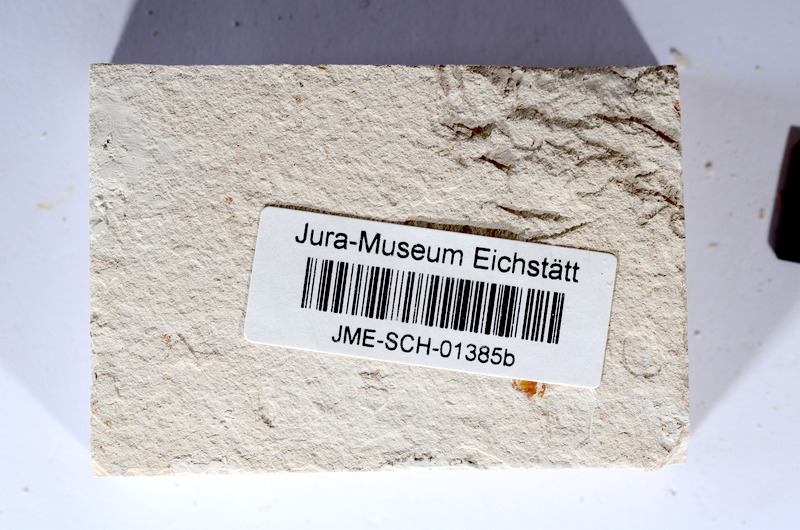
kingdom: Animalia
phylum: Chordata
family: Ascalaboidae
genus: Tharsis
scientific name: Tharsis dubius
